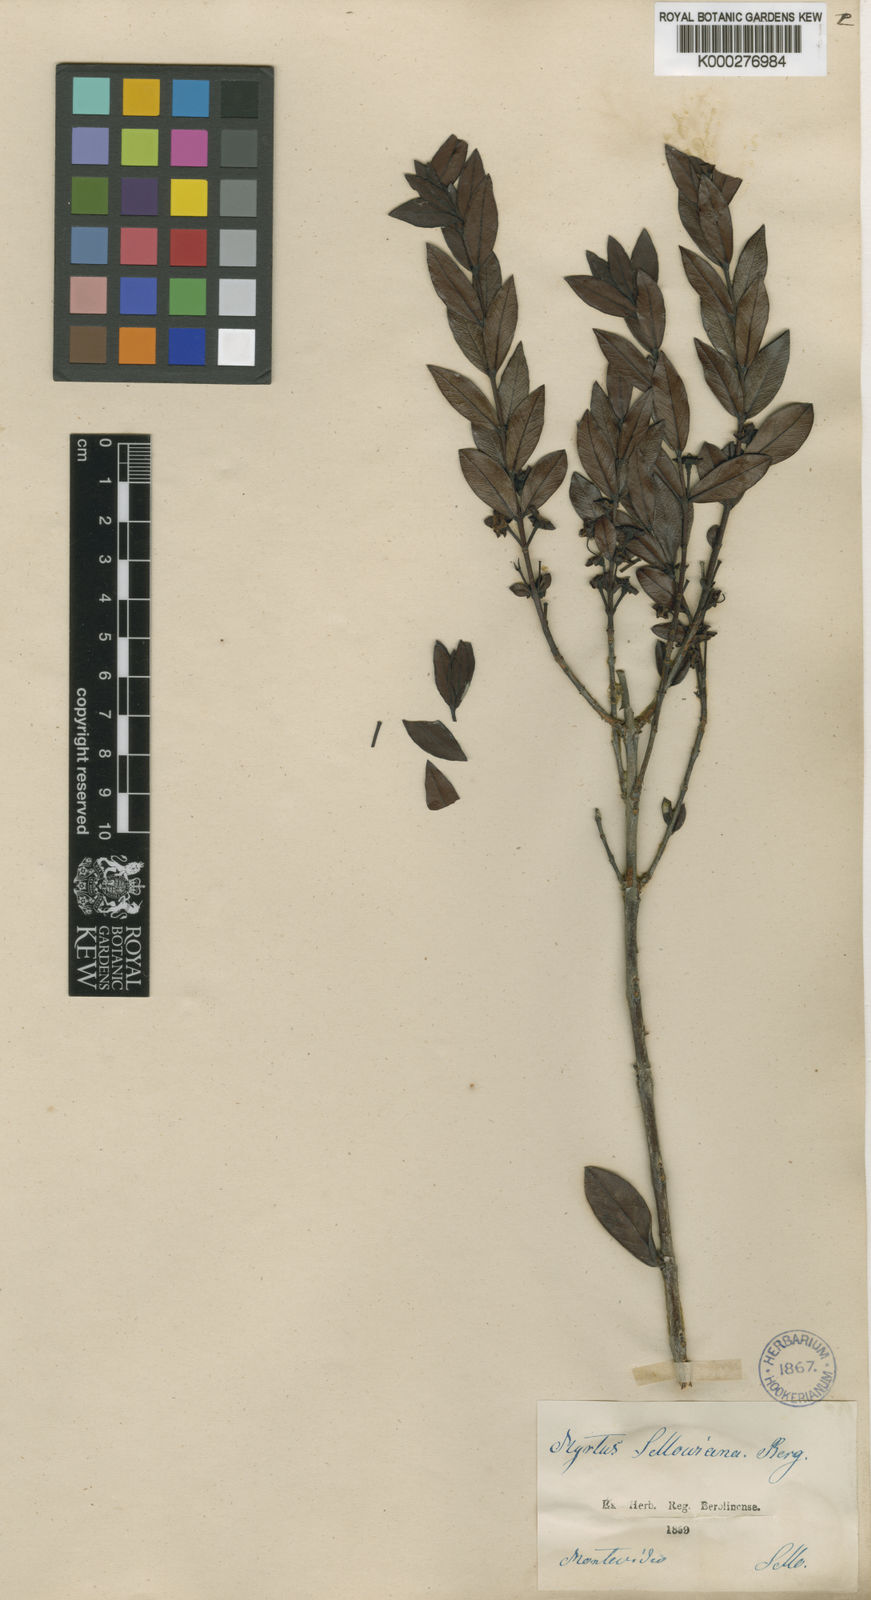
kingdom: Plantae
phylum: Tracheophyta
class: Magnoliopsida
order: Myrtales
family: Myrtaceae
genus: Psidium
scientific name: Psidium salutare
